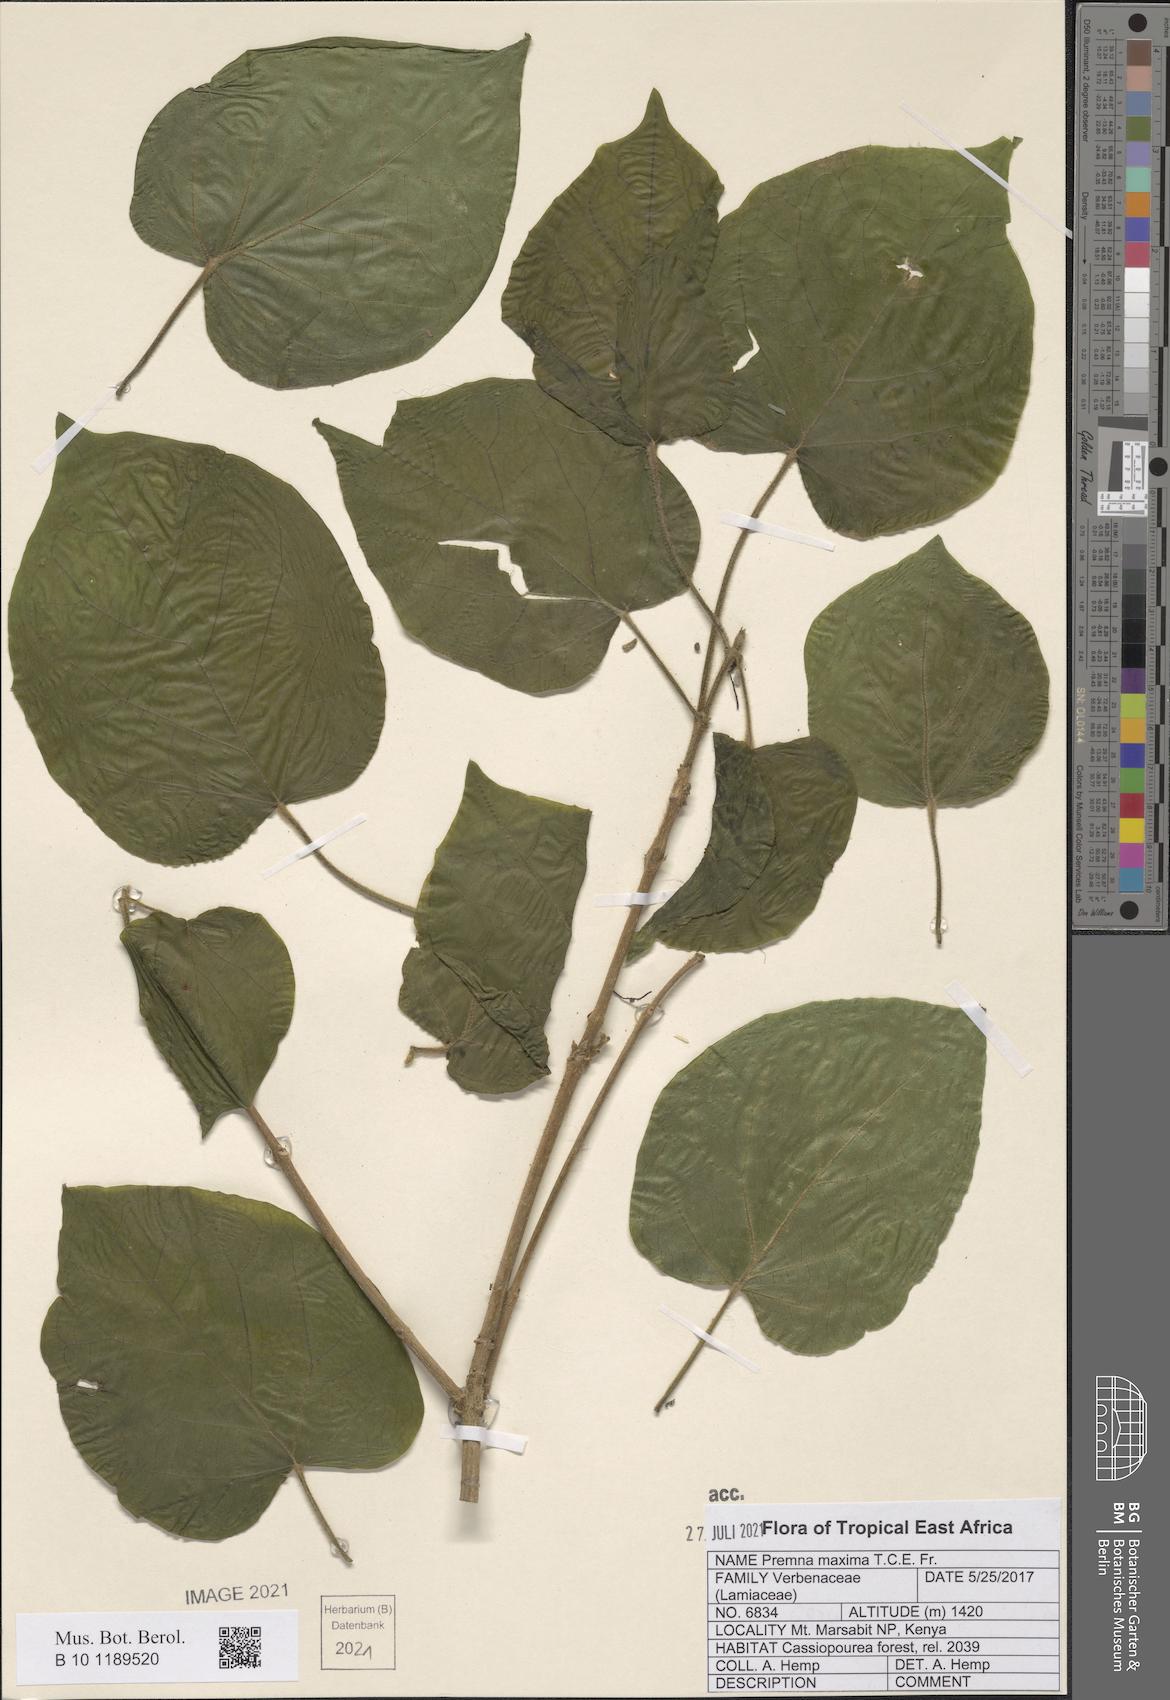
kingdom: Plantae
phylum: Tracheophyta
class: Magnoliopsida
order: Lamiales
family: Lamiaceae
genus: Premna
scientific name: Premna maxima
